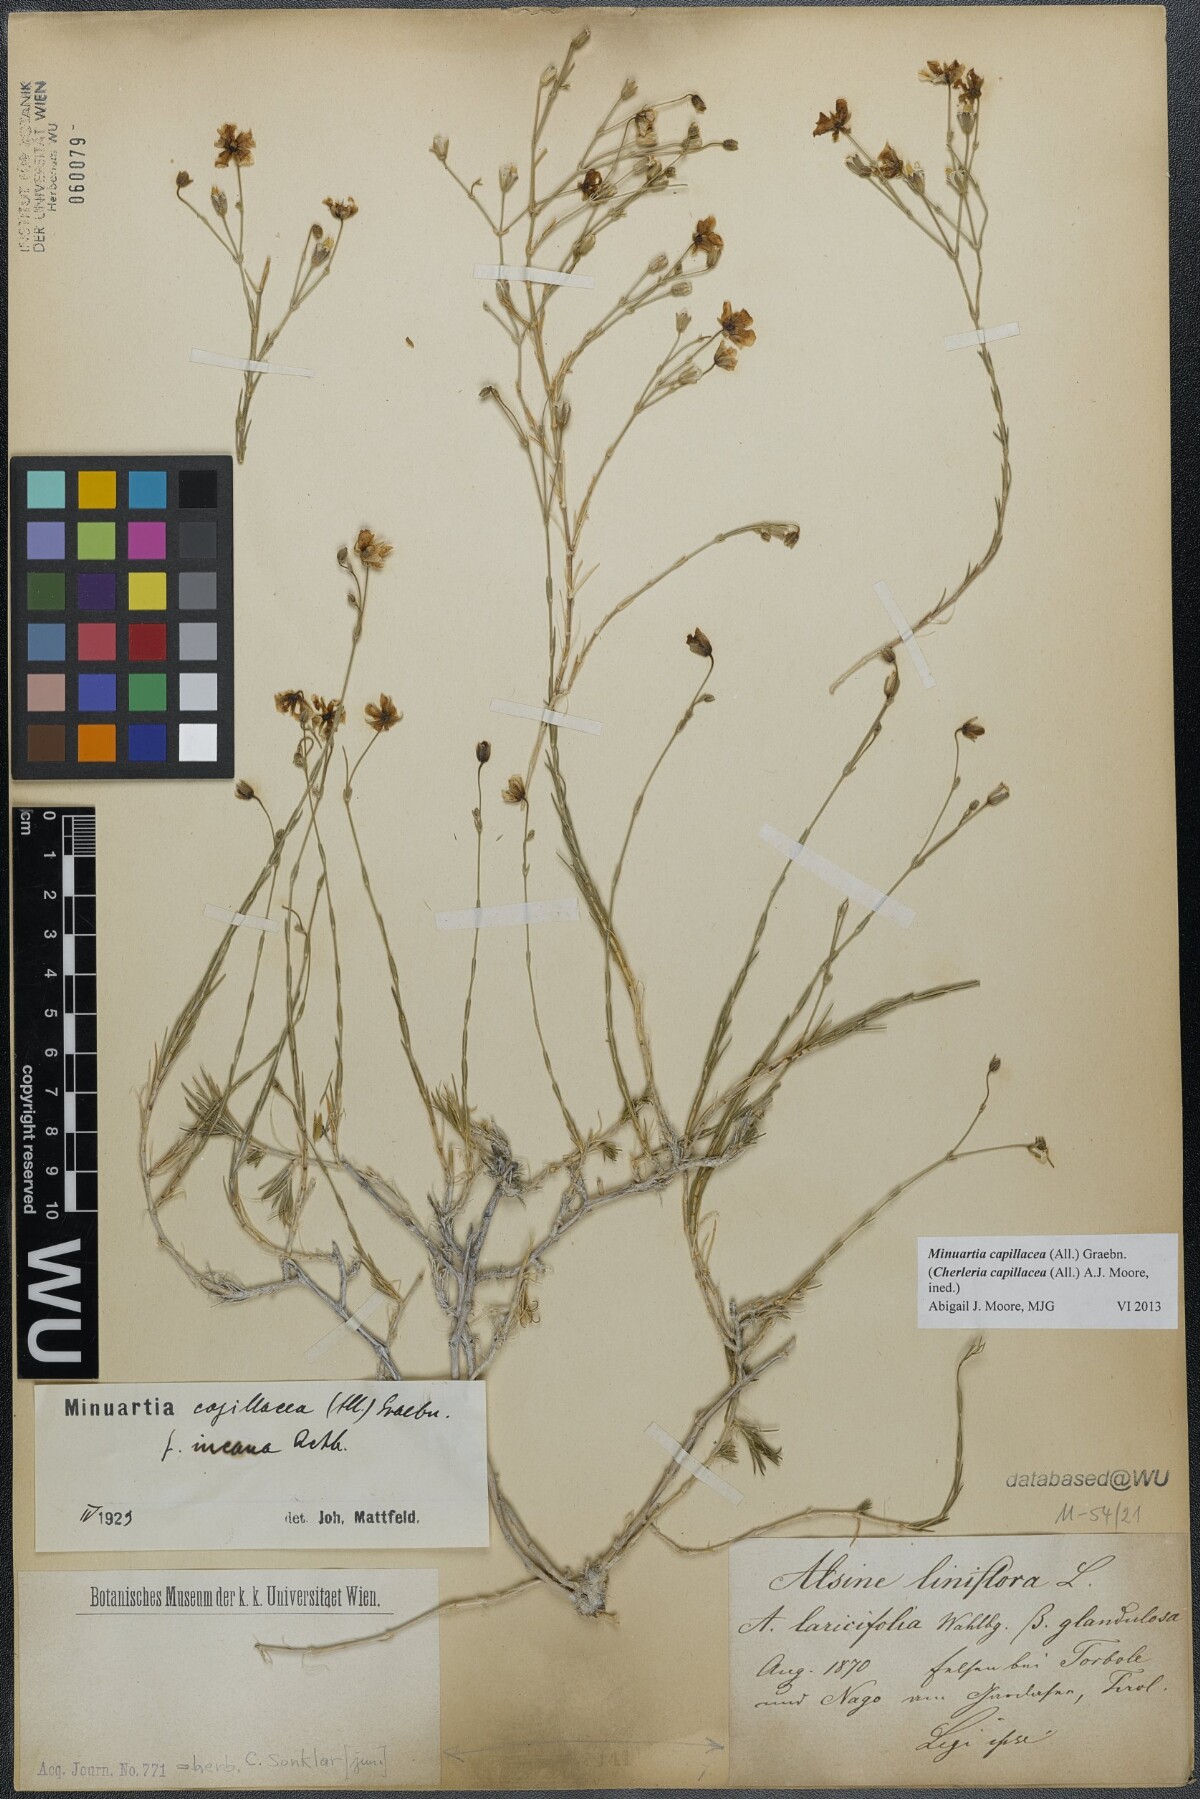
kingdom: Plantae
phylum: Tracheophyta
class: Magnoliopsida
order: Caryophyllales
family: Caryophyllaceae
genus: Cherleria
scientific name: Cherleria capillacea
